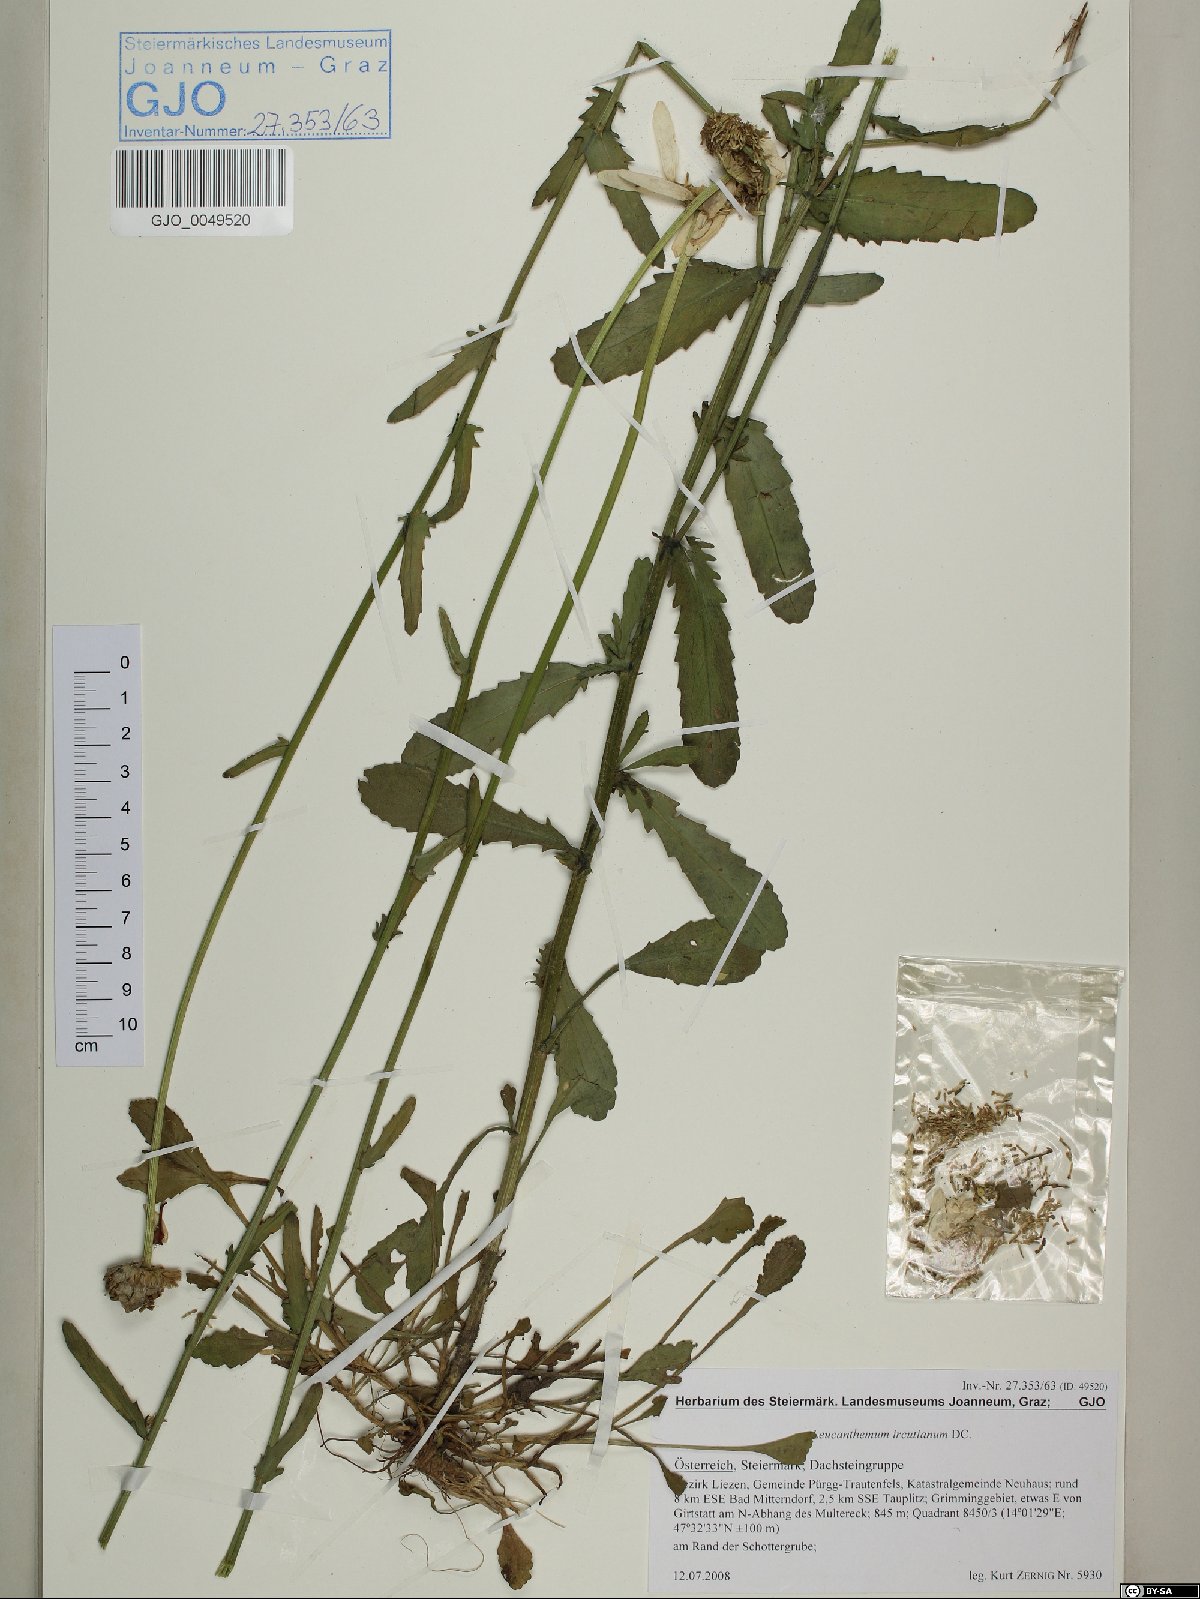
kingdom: Plantae
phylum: Tracheophyta
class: Magnoliopsida
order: Asterales
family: Asteraceae
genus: Leucanthemum
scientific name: Leucanthemum ircutianum
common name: Daisy
